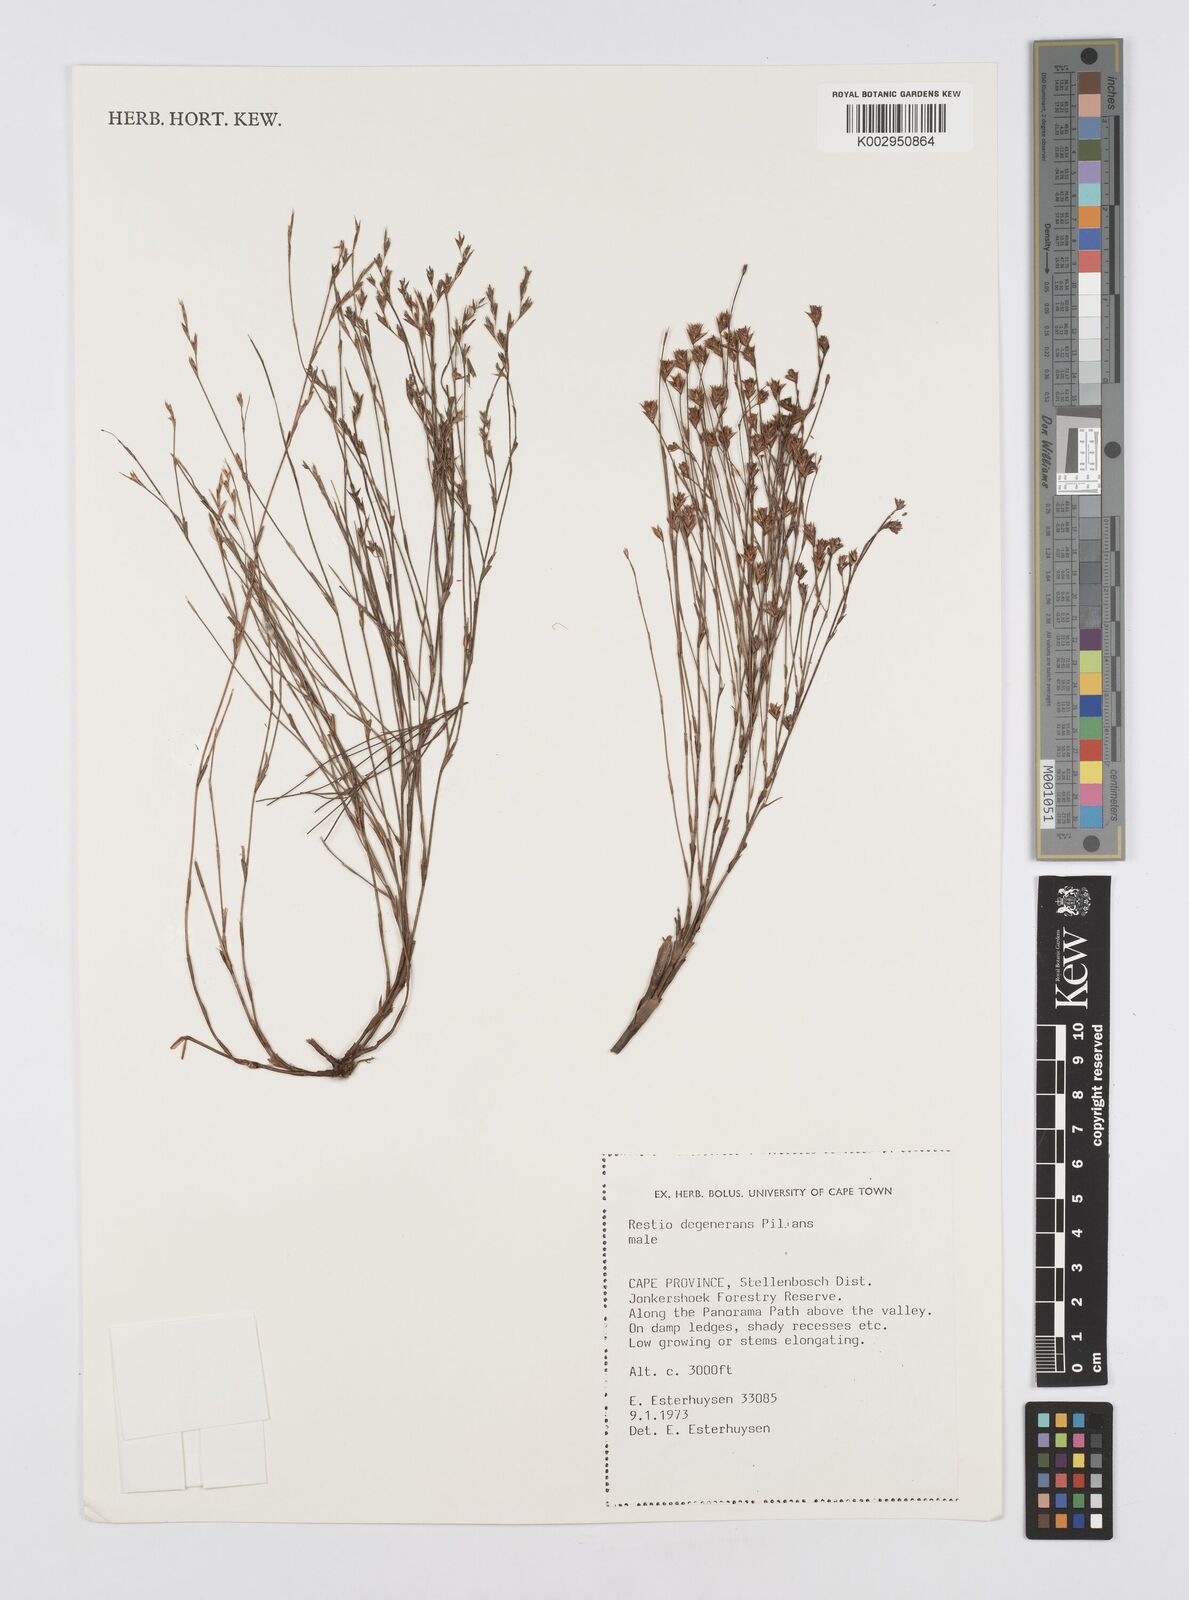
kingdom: Plantae
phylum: Tracheophyta
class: Liliopsida
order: Poales
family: Restionaceae
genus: Restio
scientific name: Restio degenerans
